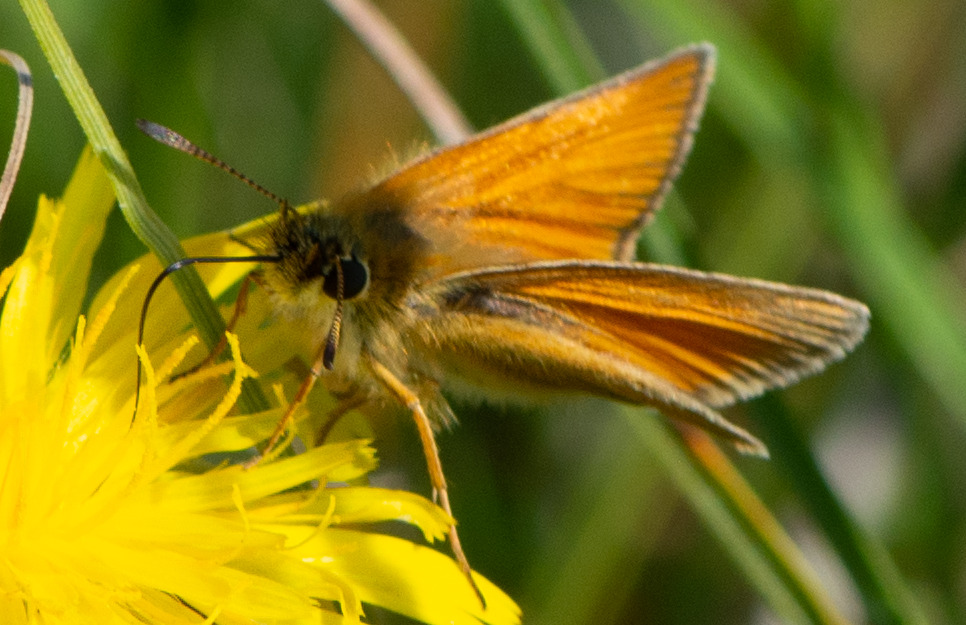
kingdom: Animalia
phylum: Arthropoda
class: Insecta
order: Lepidoptera
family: Hesperiidae
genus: Thymelicus
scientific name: Thymelicus lineola
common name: Stregbredpande
